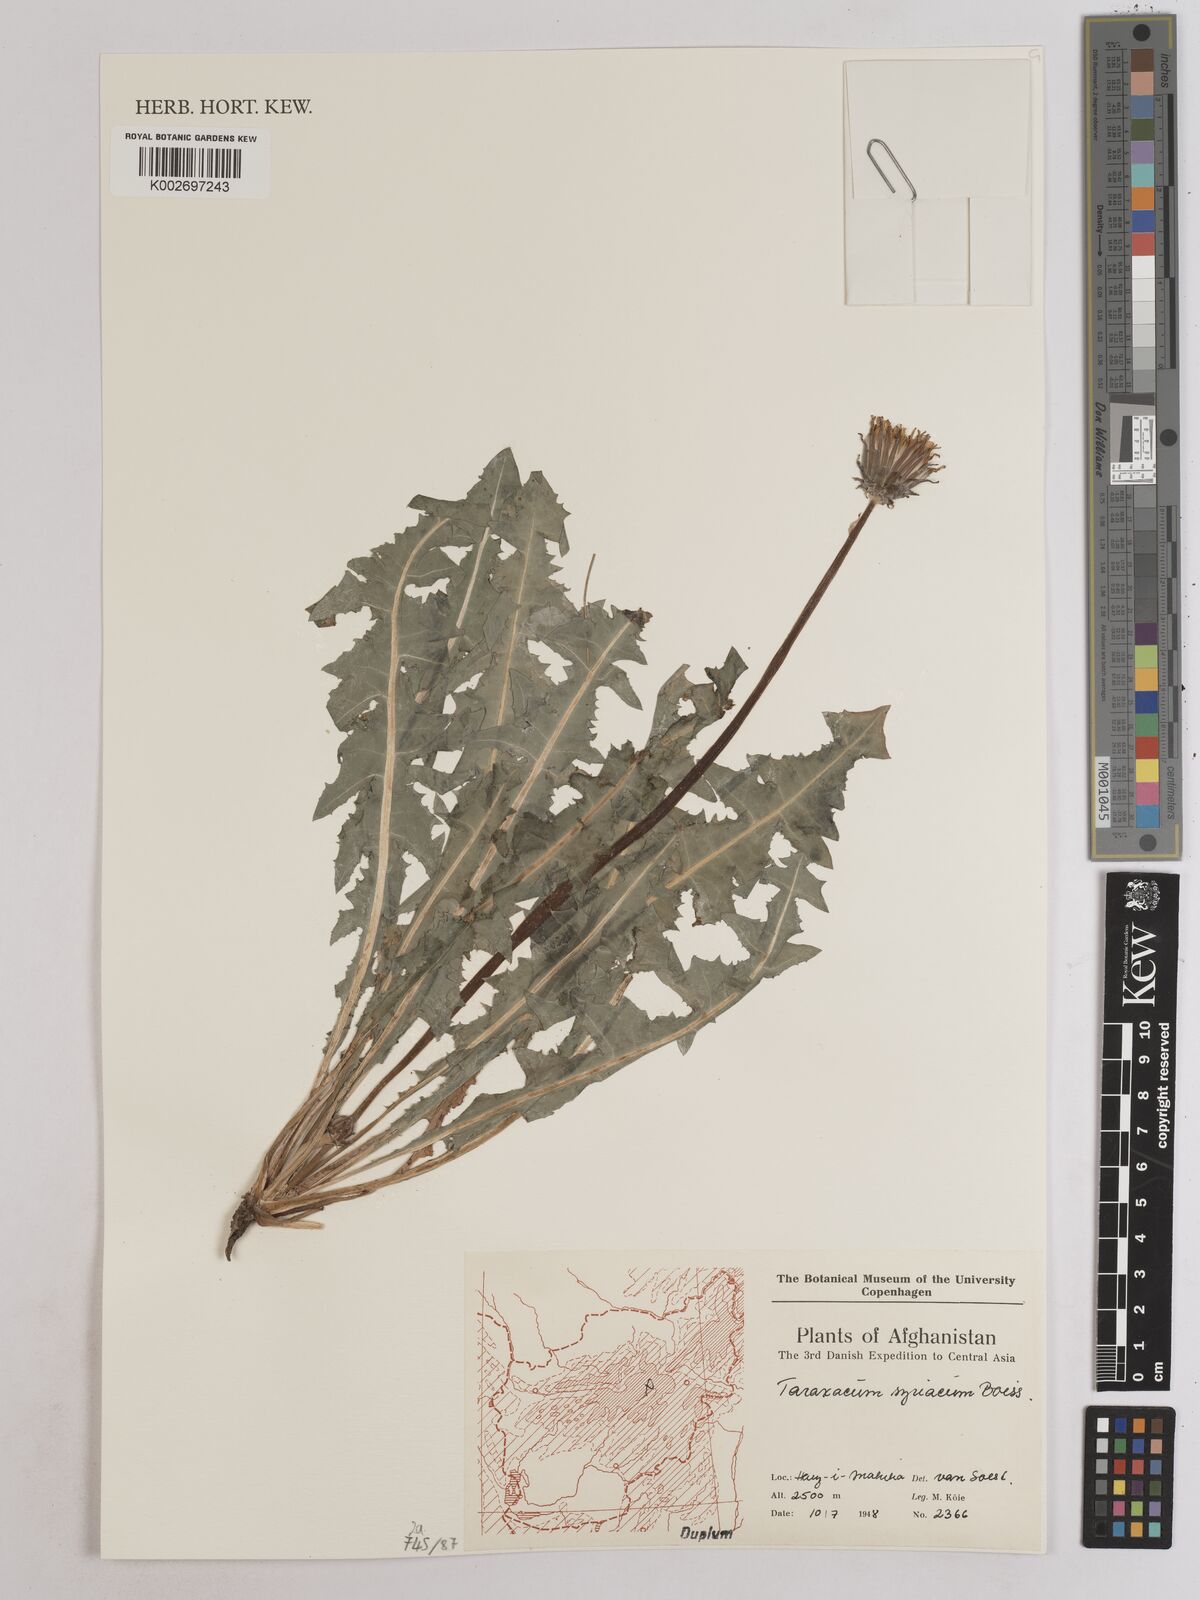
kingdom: Plantae
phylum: Tracheophyta
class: Magnoliopsida
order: Asterales
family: Asteraceae
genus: Taraxacum
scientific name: Taraxacum syriacum
